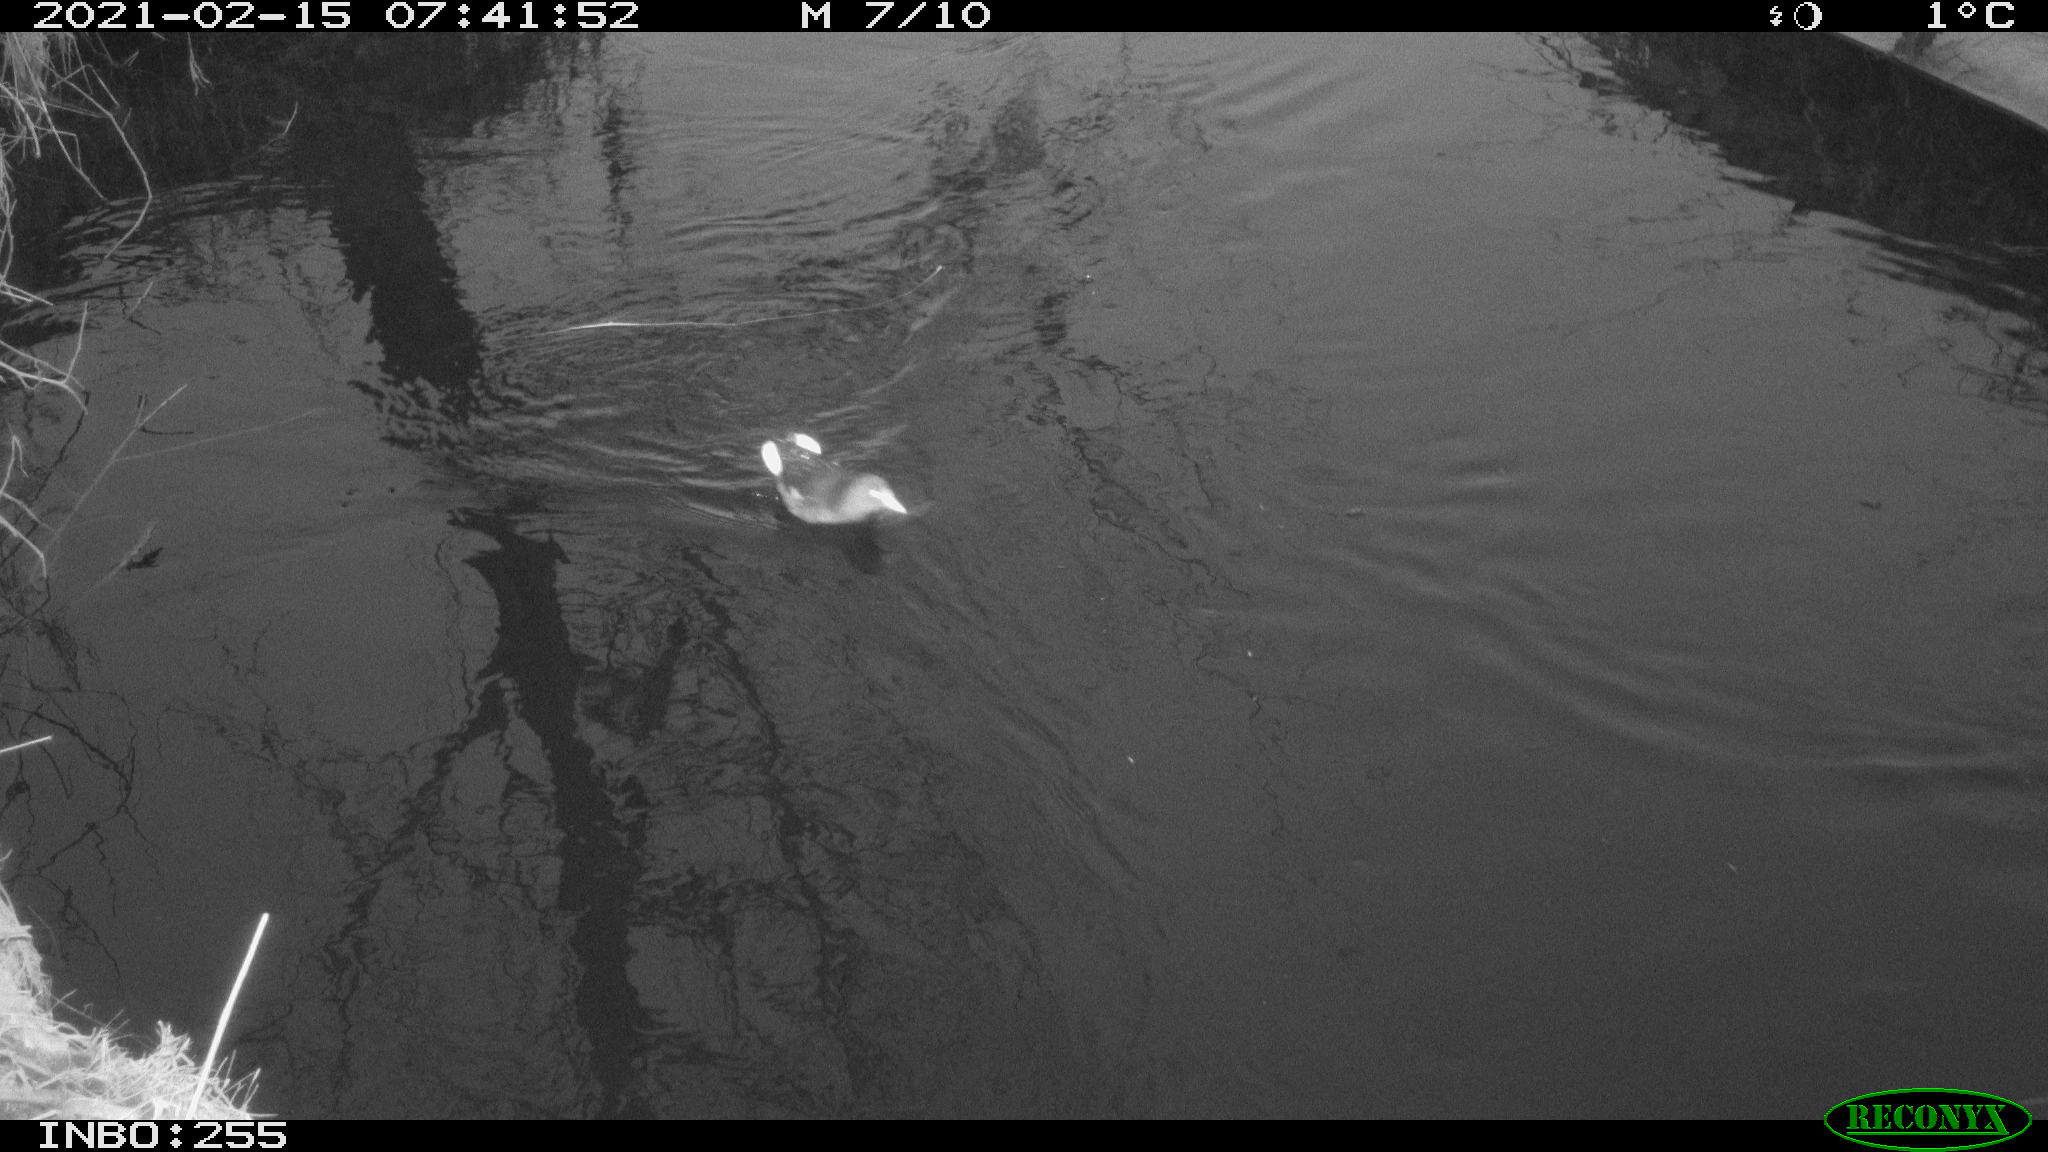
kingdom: Animalia
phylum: Chordata
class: Aves
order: Gruiformes
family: Rallidae
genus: Gallinula
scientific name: Gallinula chloropus
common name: Common moorhen
